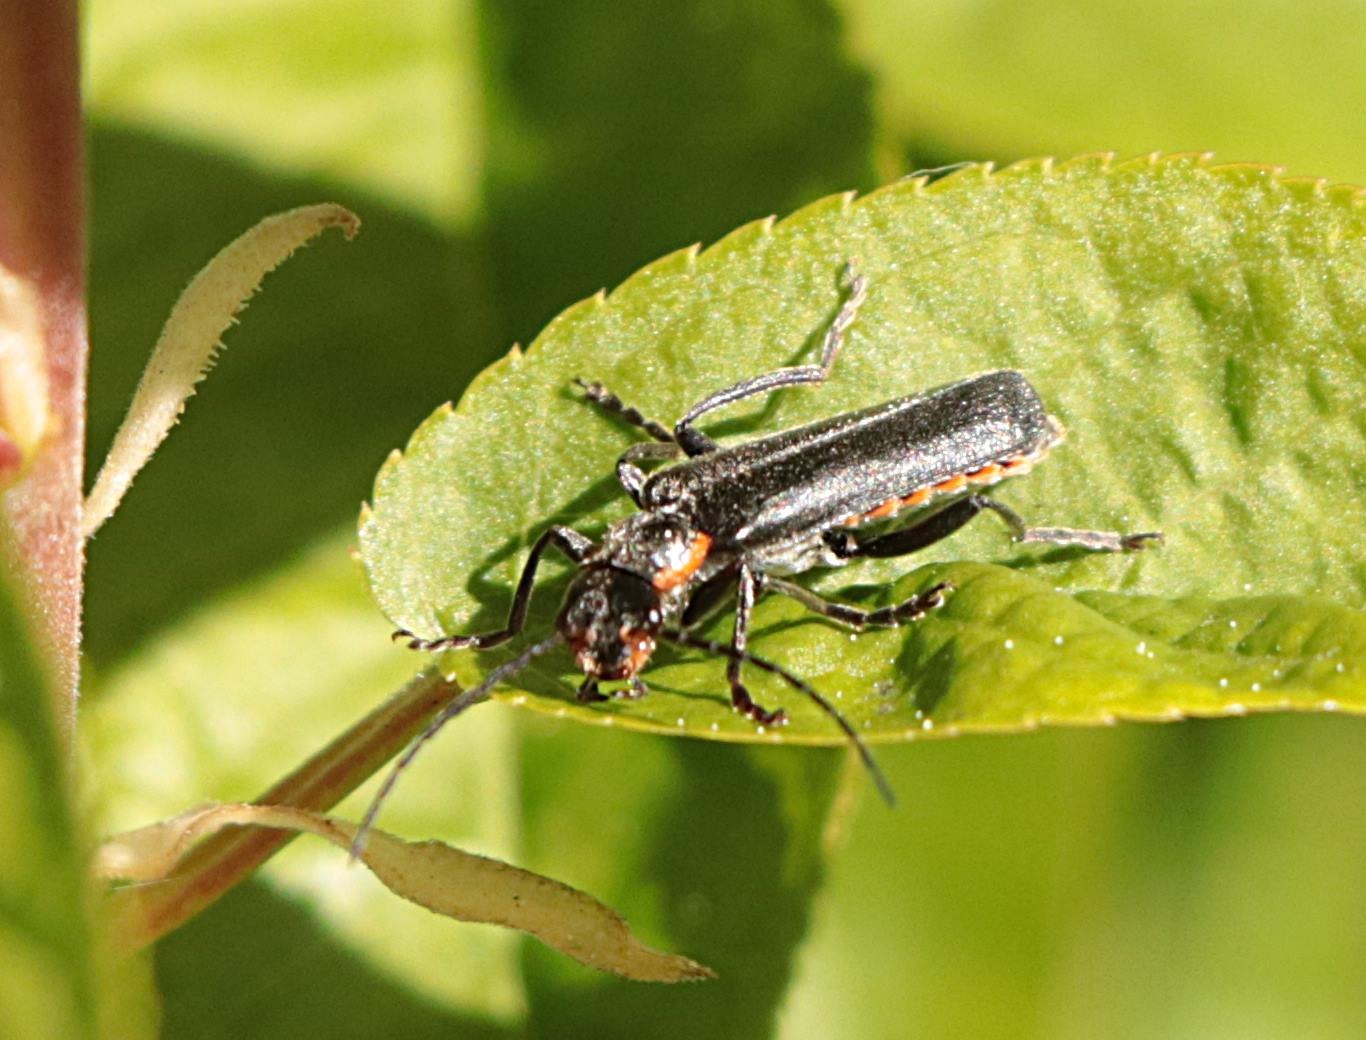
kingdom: Animalia
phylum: Arthropoda
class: Insecta
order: Coleoptera
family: Cantharidae
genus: Cantharis
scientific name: Cantharis obscura
